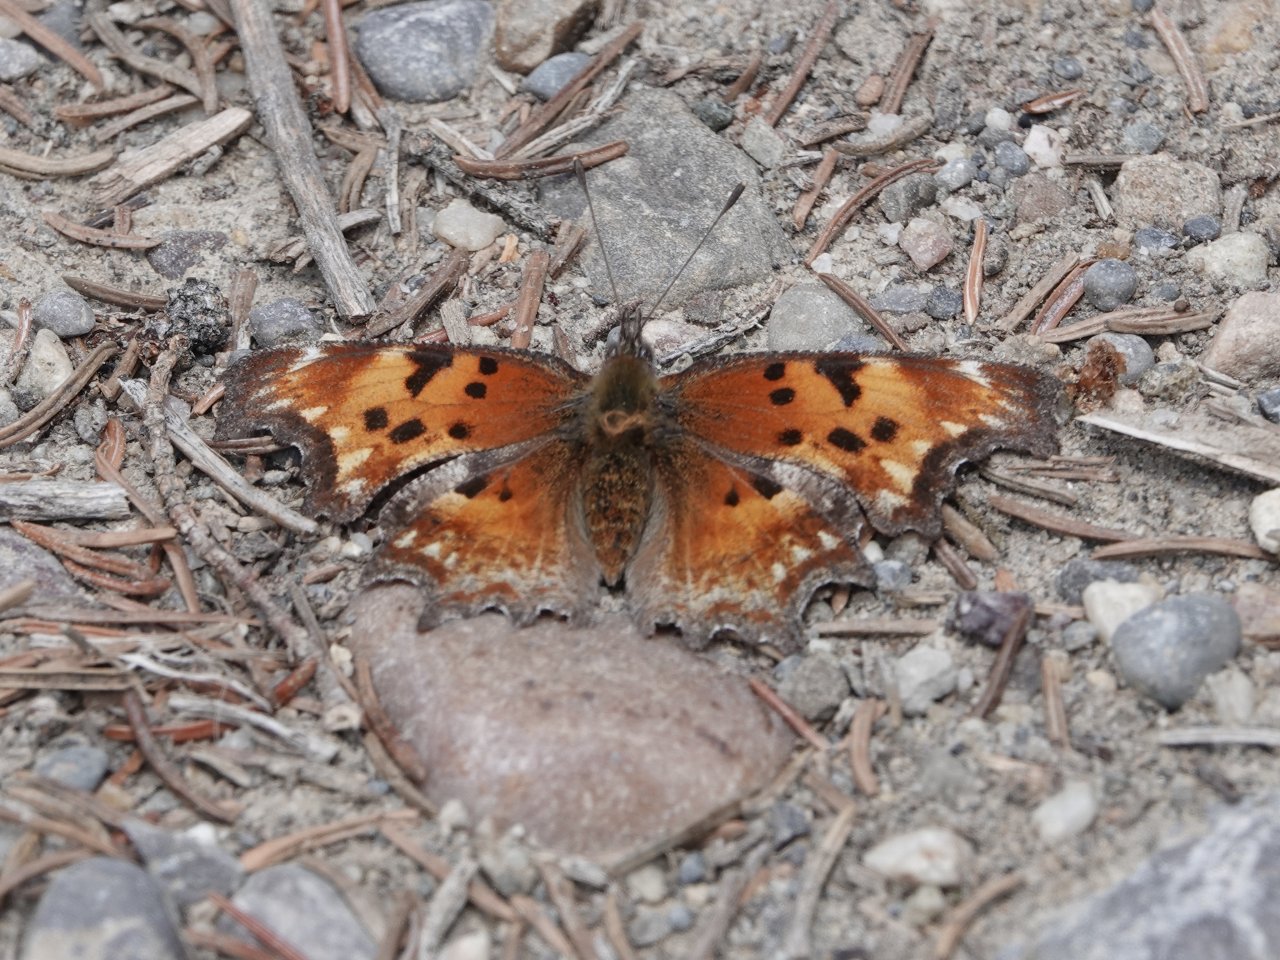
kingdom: Animalia
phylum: Arthropoda
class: Insecta
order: Lepidoptera
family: Nymphalidae
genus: Polygonia
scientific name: Polygonia gracilis
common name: Hoary Comma
